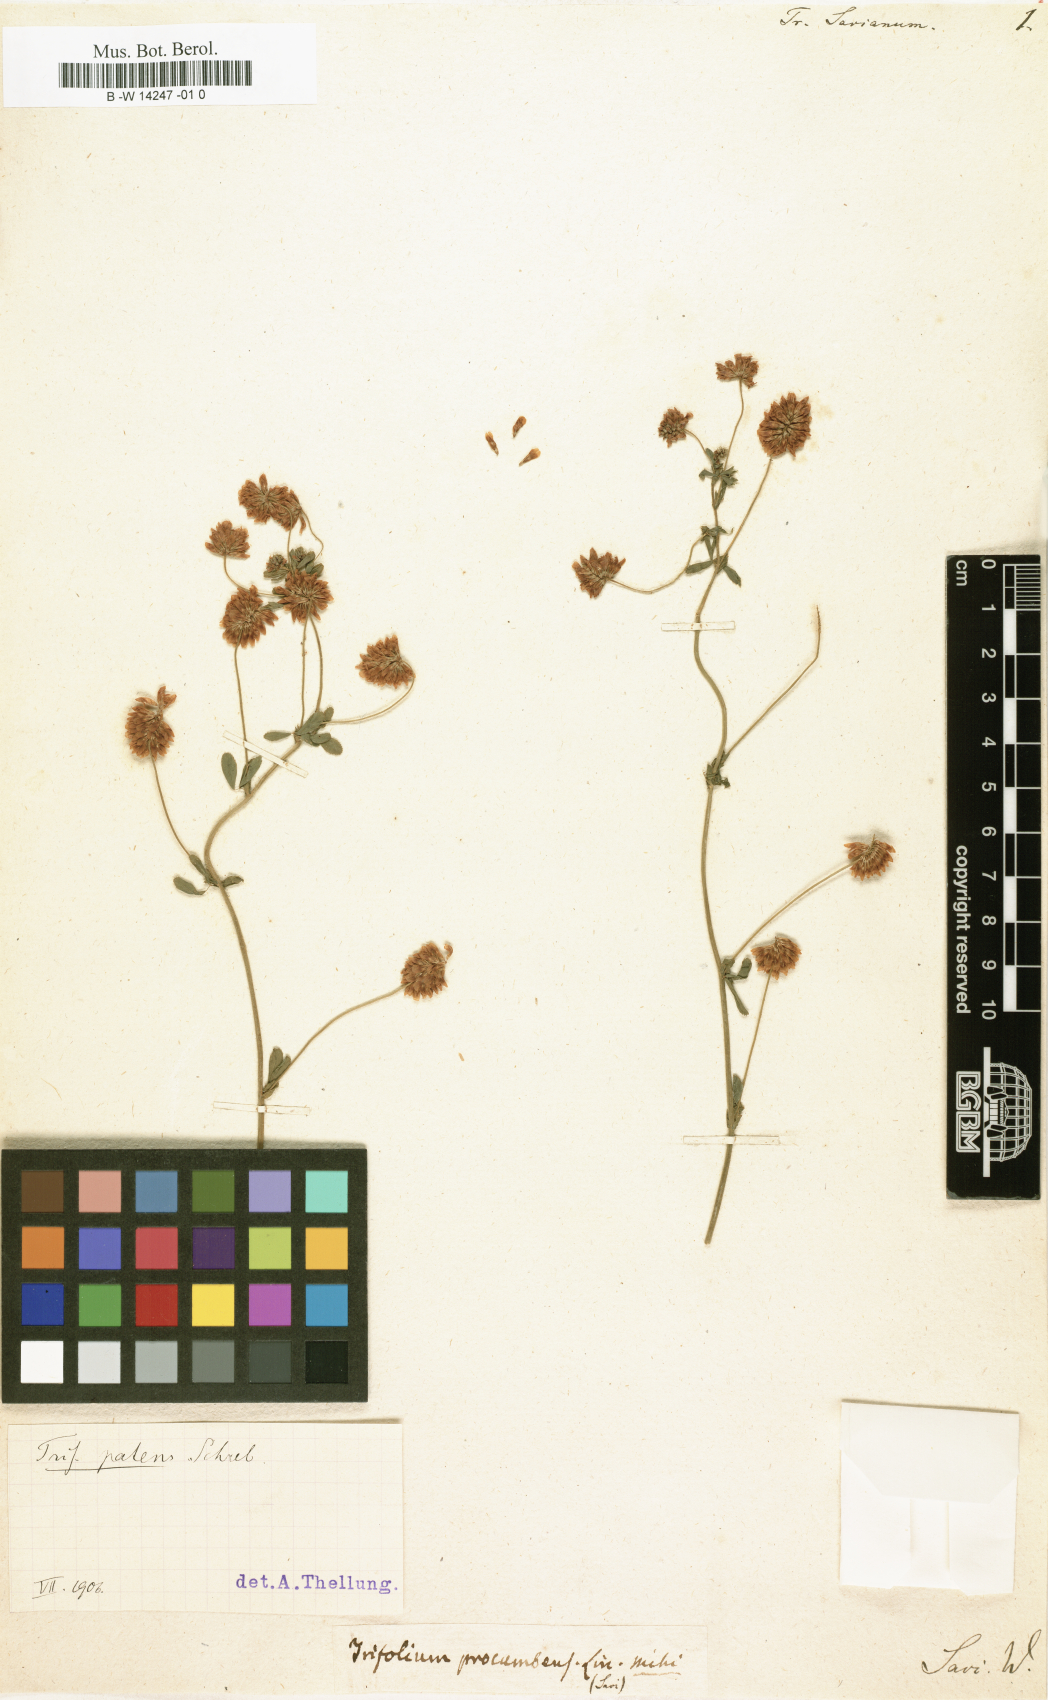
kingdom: Plantae
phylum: Tracheophyta
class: Magnoliopsida
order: Fabales
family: Fabaceae
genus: Trifolium
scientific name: Trifolium uniflorum
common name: One-flower clover
